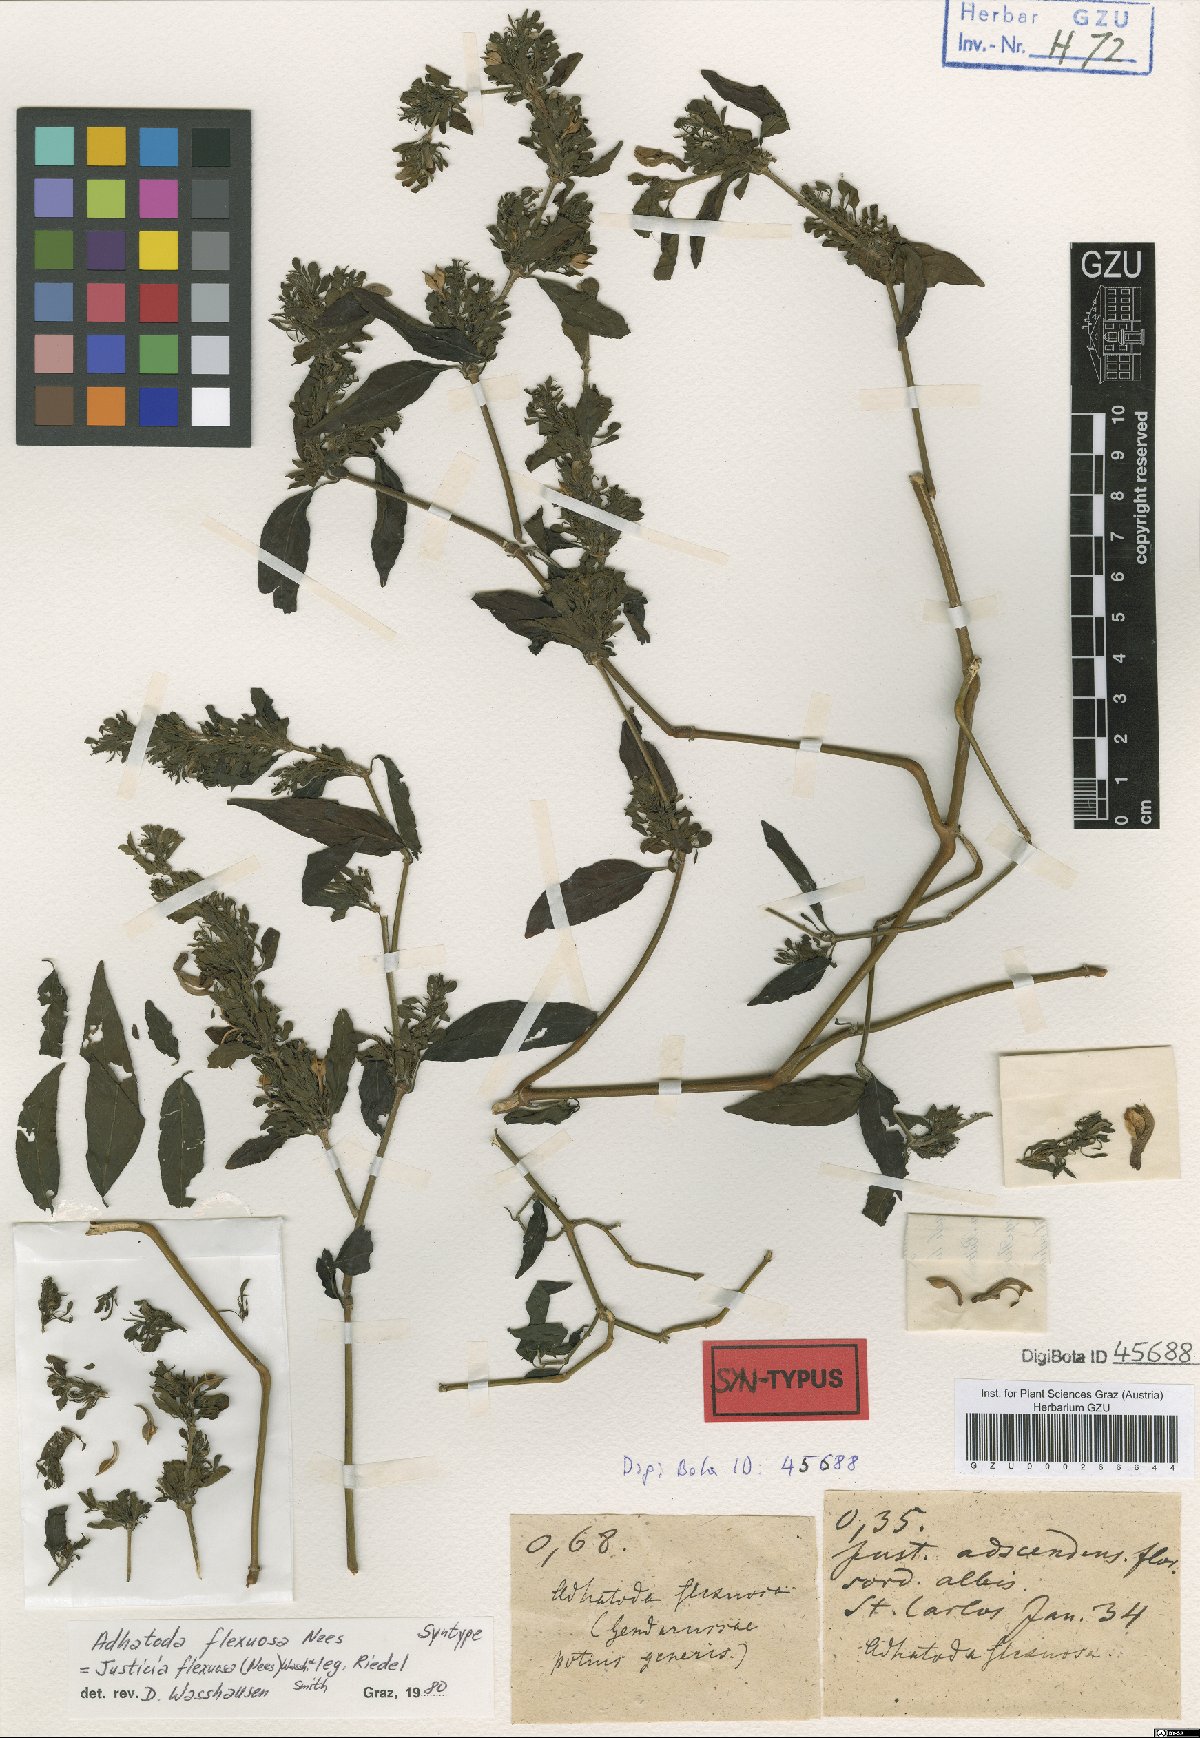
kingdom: Plantae
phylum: Tracheophyta
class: Magnoliopsida
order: Lamiales
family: Acanthaceae
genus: Poikilacanthus
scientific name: Poikilacanthus glandulosus
